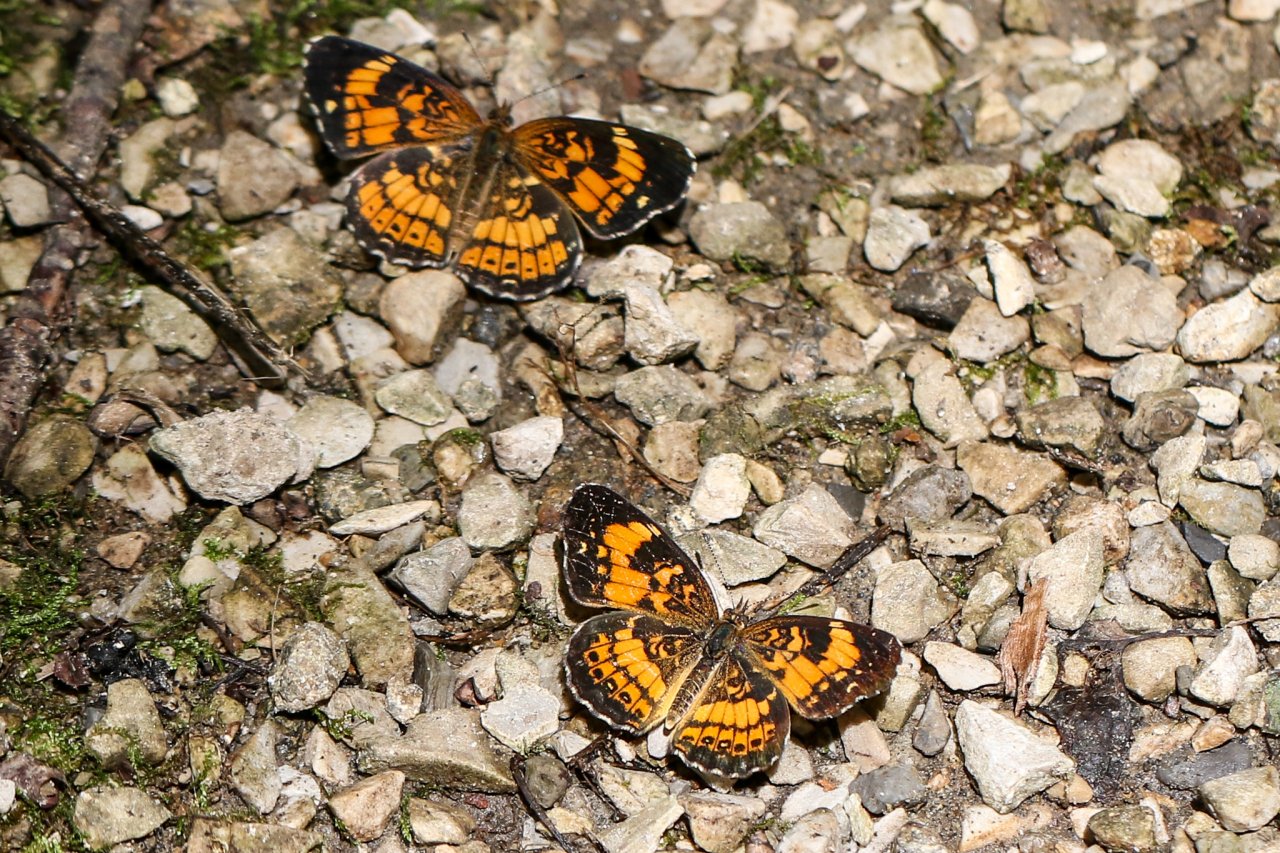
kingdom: Animalia
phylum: Arthropoda
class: Insecta
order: Lepidoptera
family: Nymphalidae
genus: Chlosyne
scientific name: Chlosyne nycteis
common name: Silvery Checkerspot
